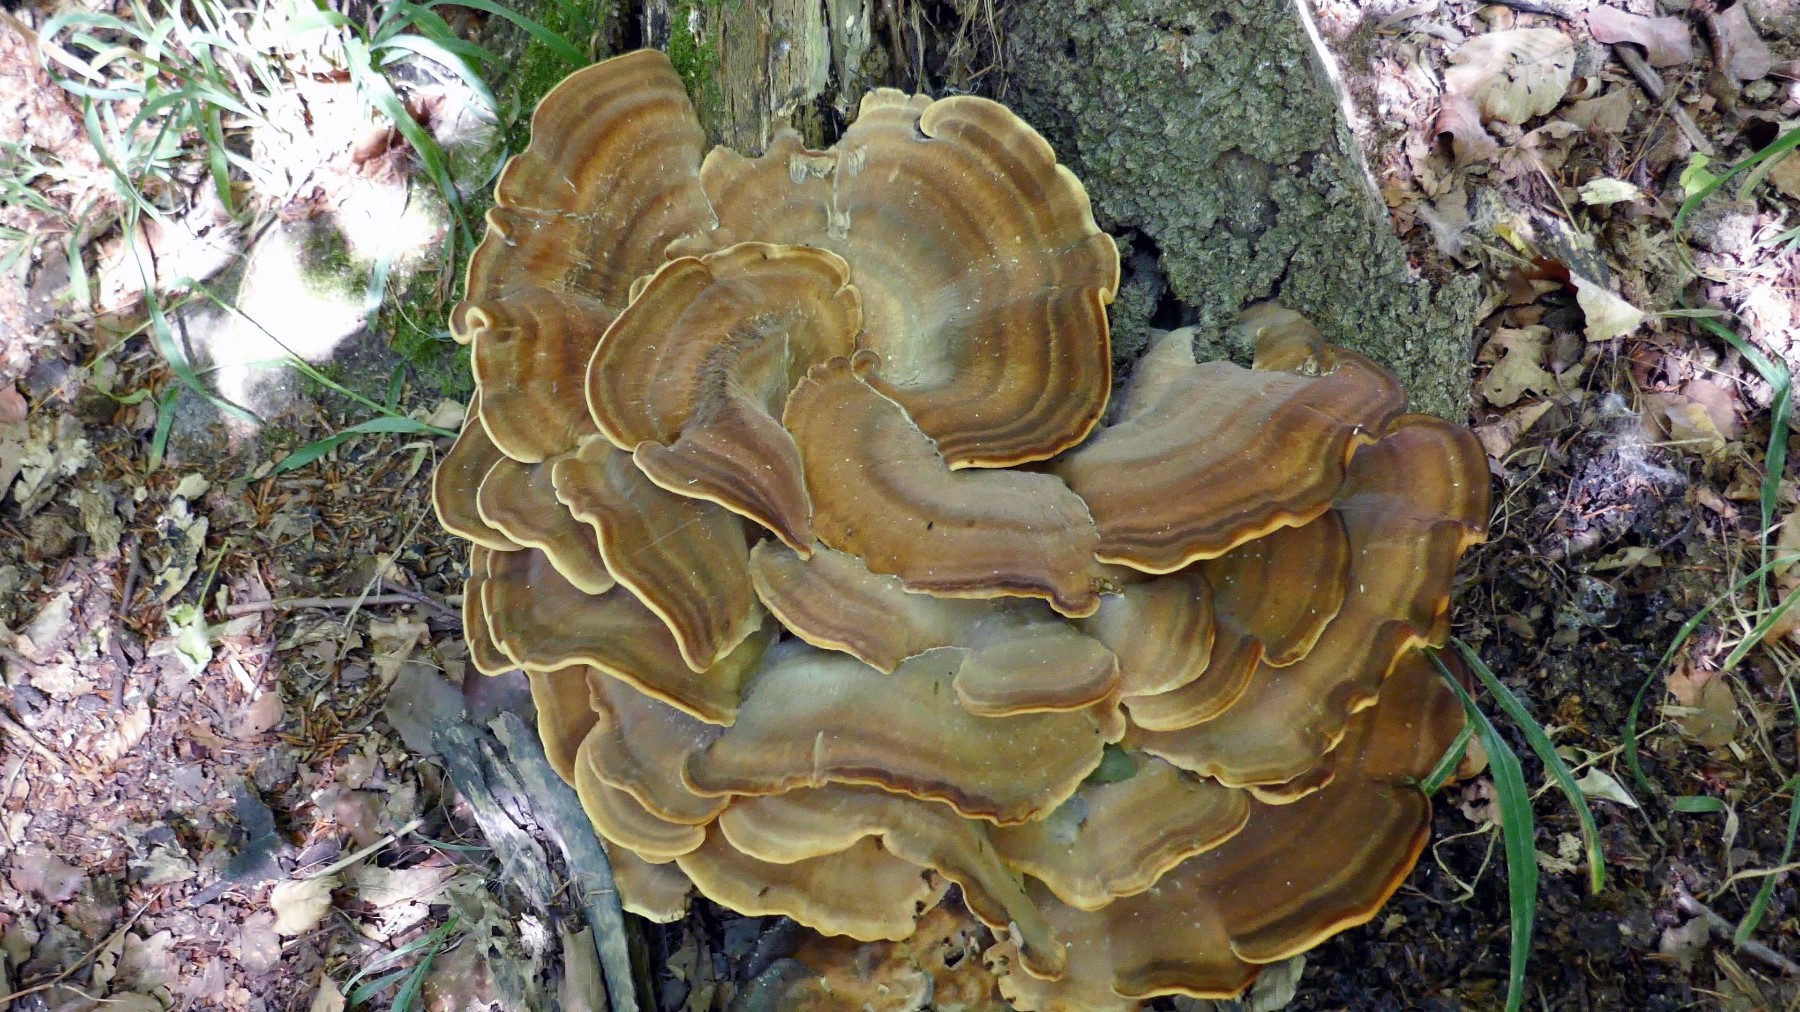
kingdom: Fungi
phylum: Basidiomycota
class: Agaricomycetes
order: Polyporales
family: Meripilaceae
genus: Meripilus
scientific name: Meripilus giganteus
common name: kæmpeporesvamp
